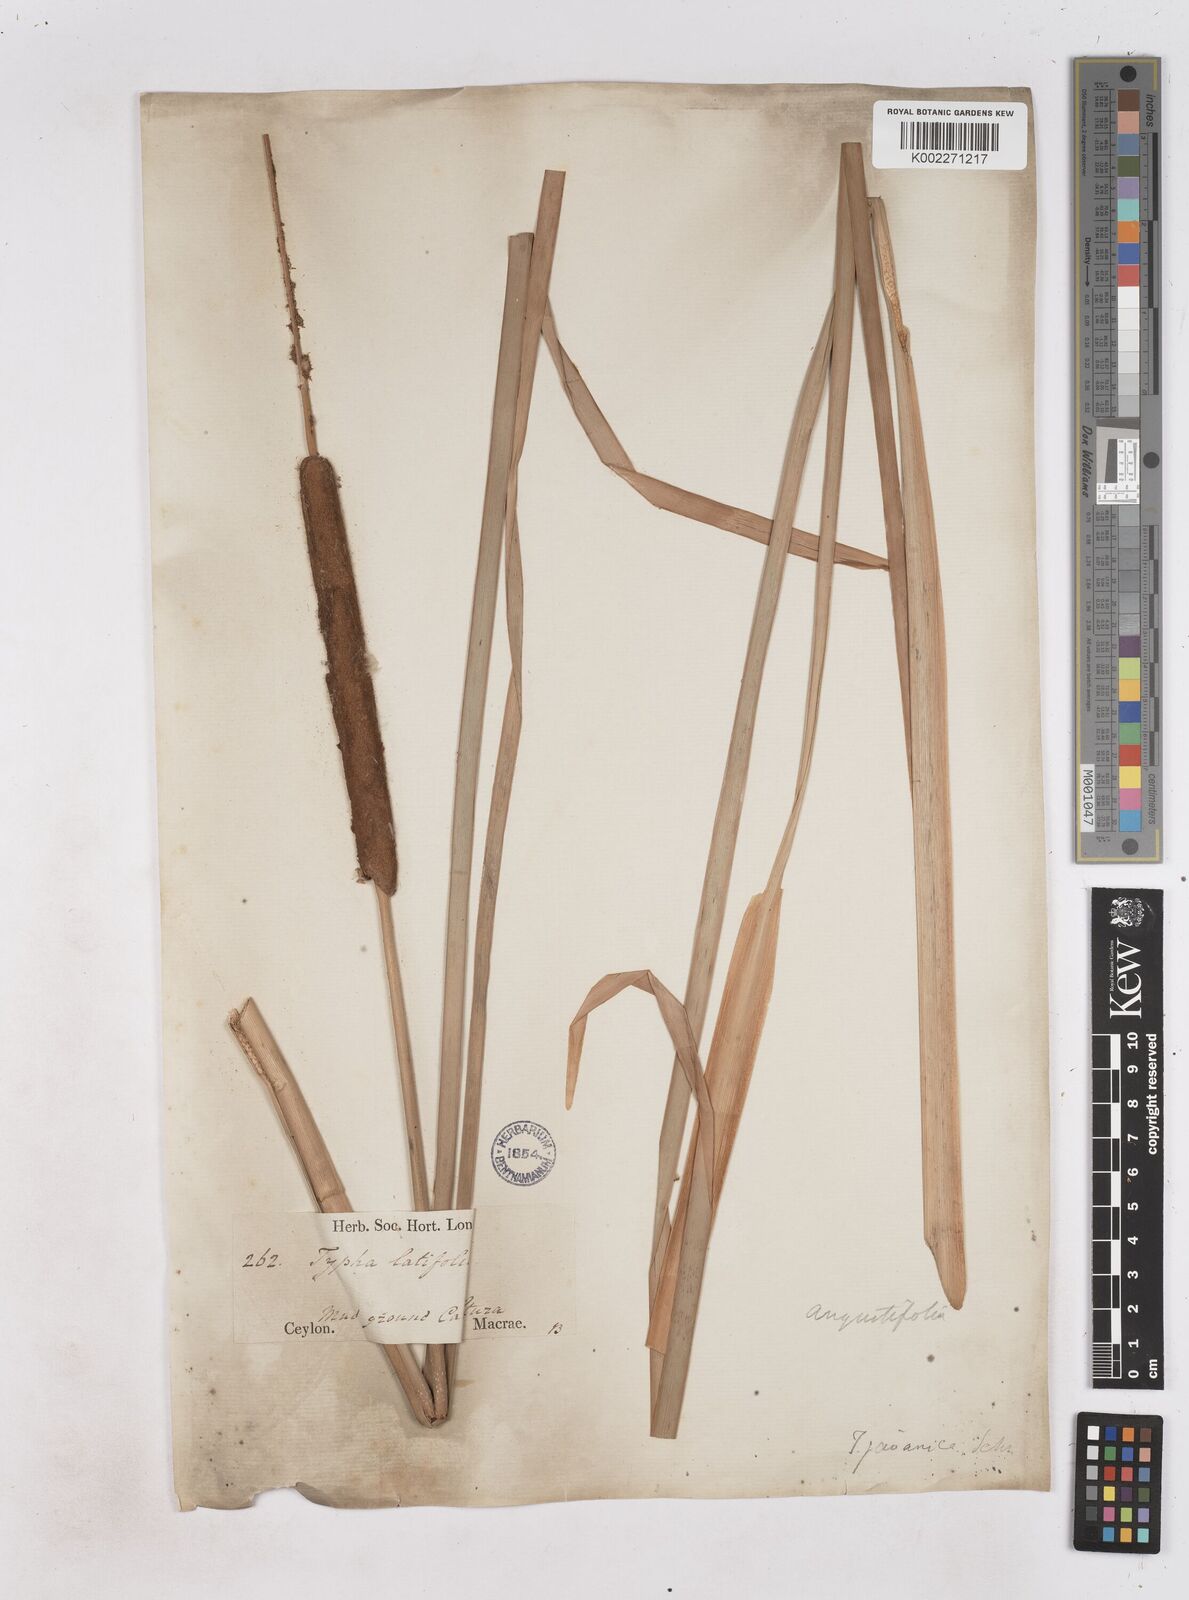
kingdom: Plantae
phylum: Tracheophyta
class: Liliopsida
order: Poales
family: Typhaceae
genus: Typha
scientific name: Typha domingensis
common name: Southern cattail
